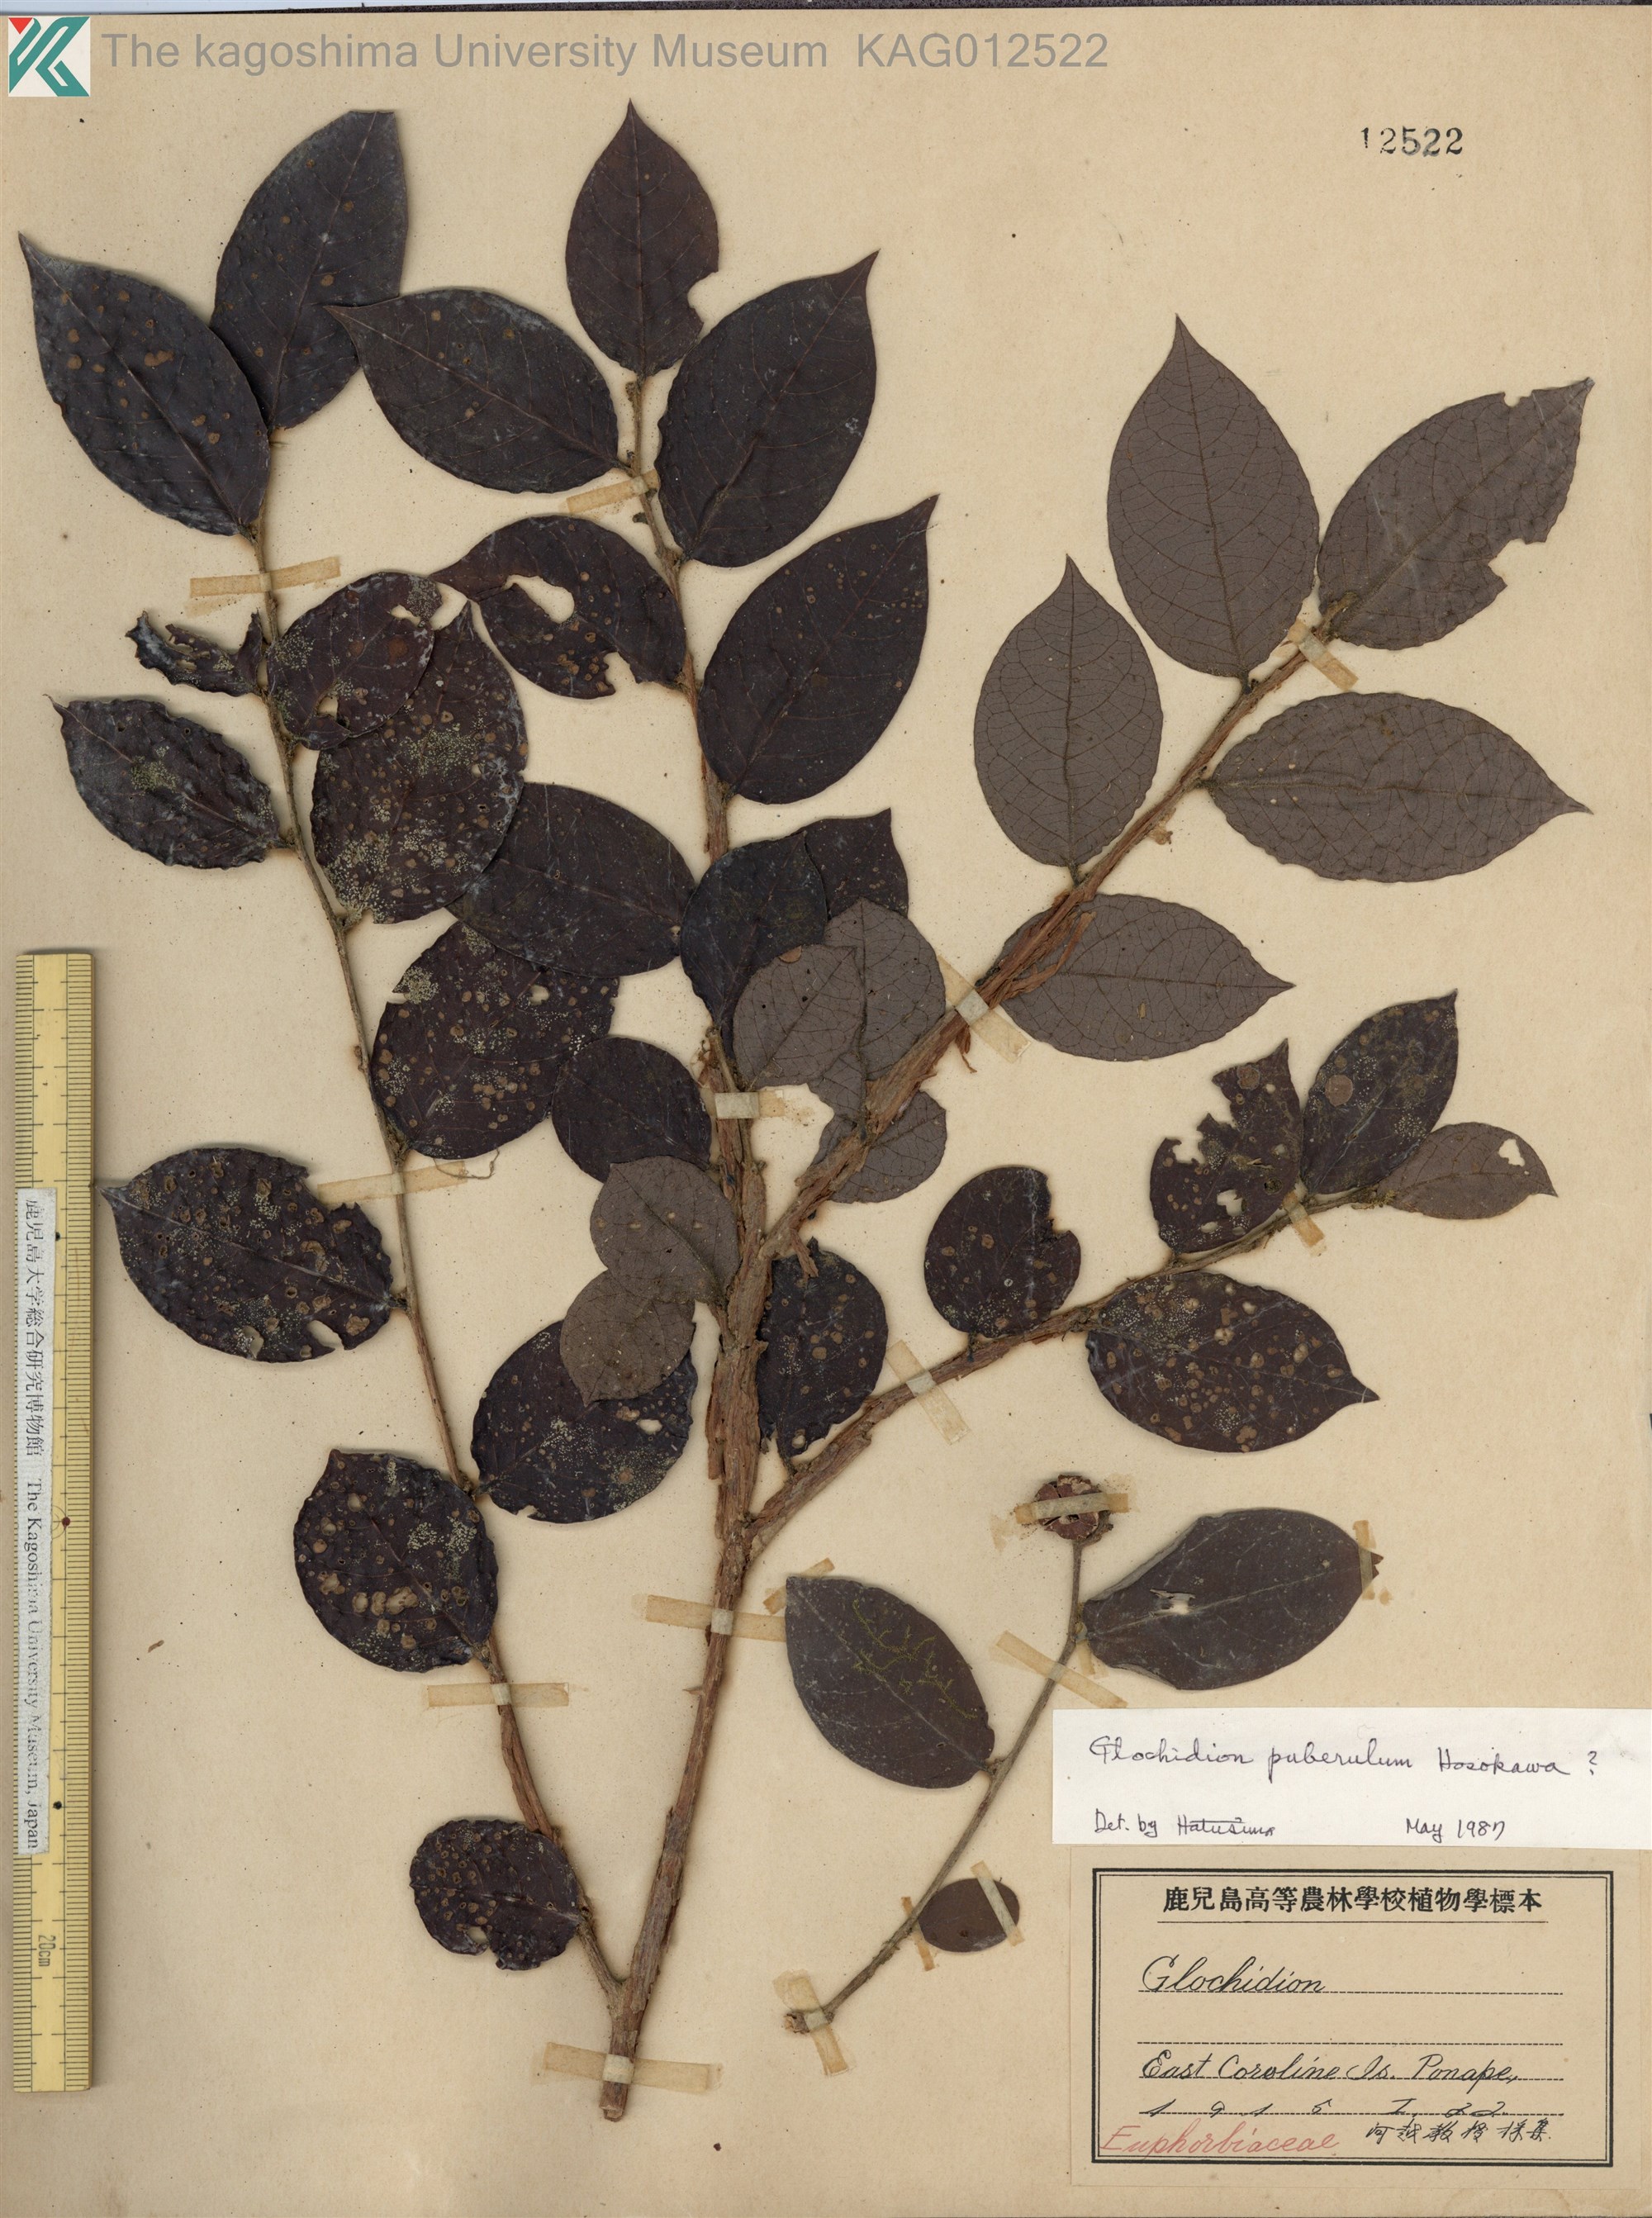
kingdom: Plantae
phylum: Tracheophyta
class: Magnoliopsida
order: Malpighiales
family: Phyllanthaceae
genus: Glochidion
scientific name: Glochidion puberulum
